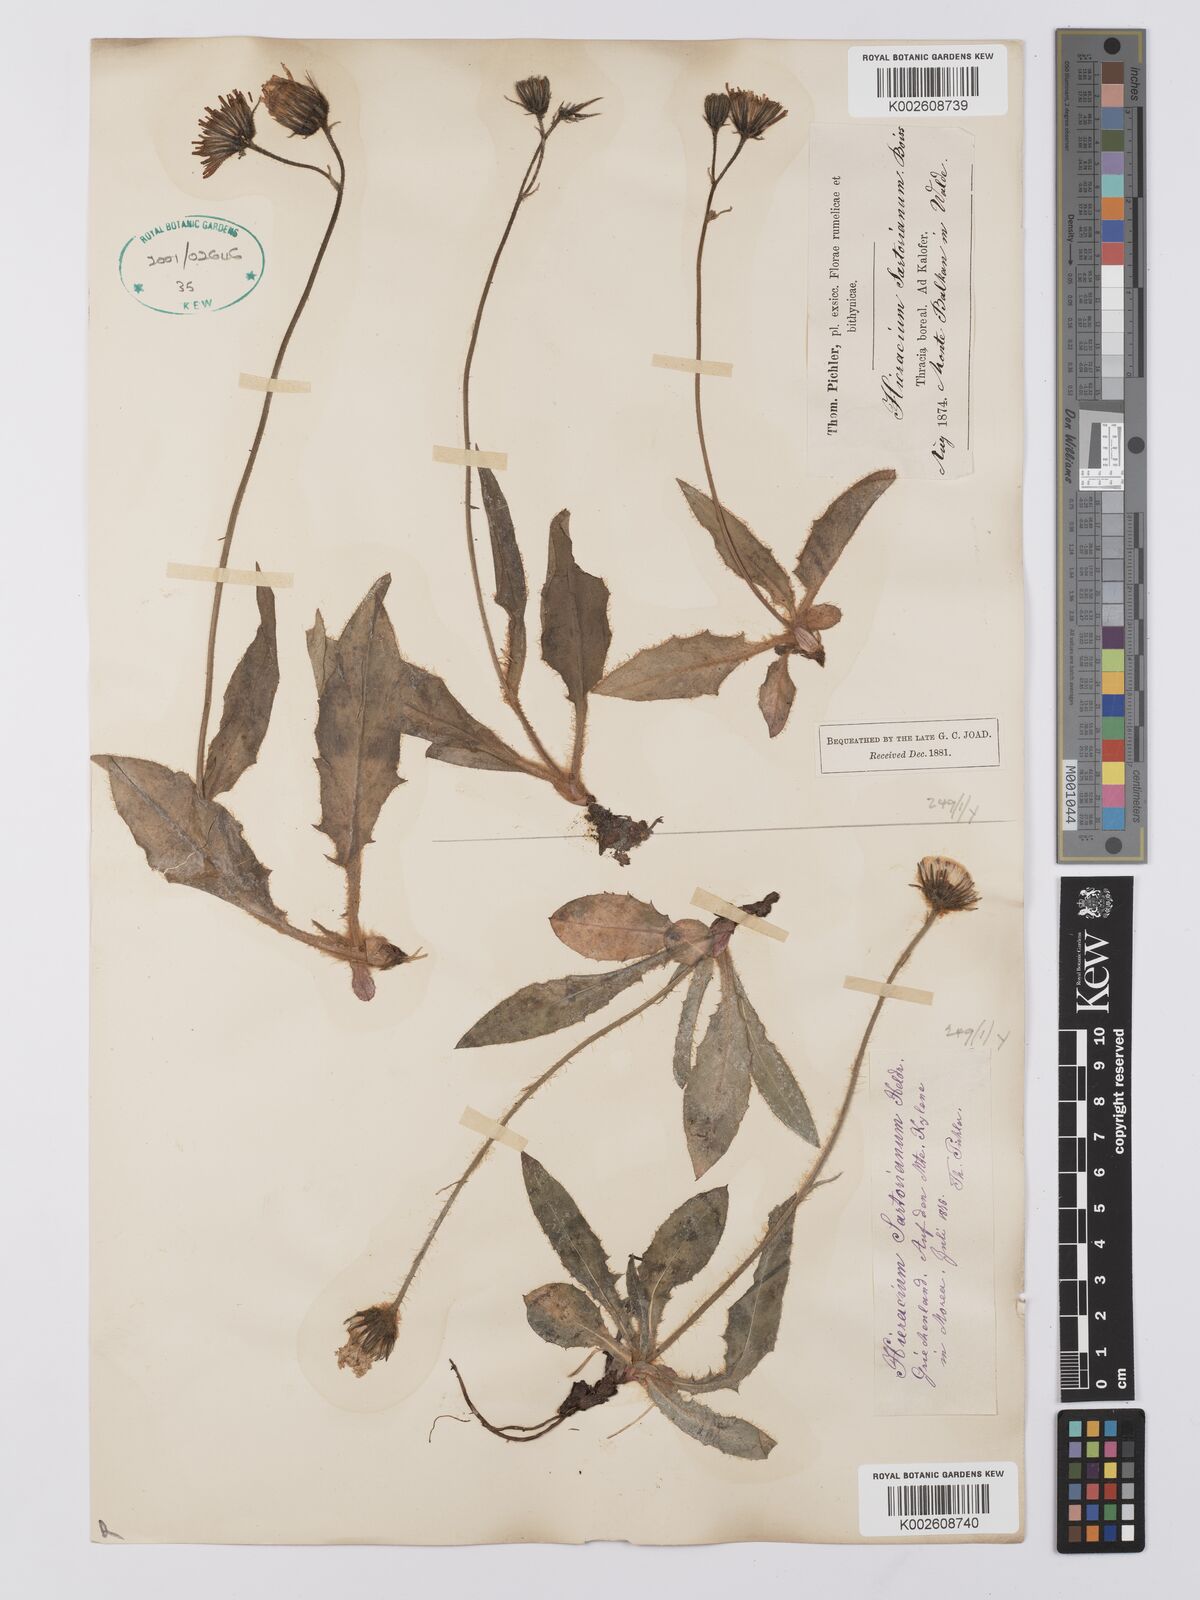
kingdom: Plantae
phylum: Tracheophyta
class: Magnoliopsida
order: Asterales
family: Asteraceae
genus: Hieracium
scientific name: Hieracium sartorianum
